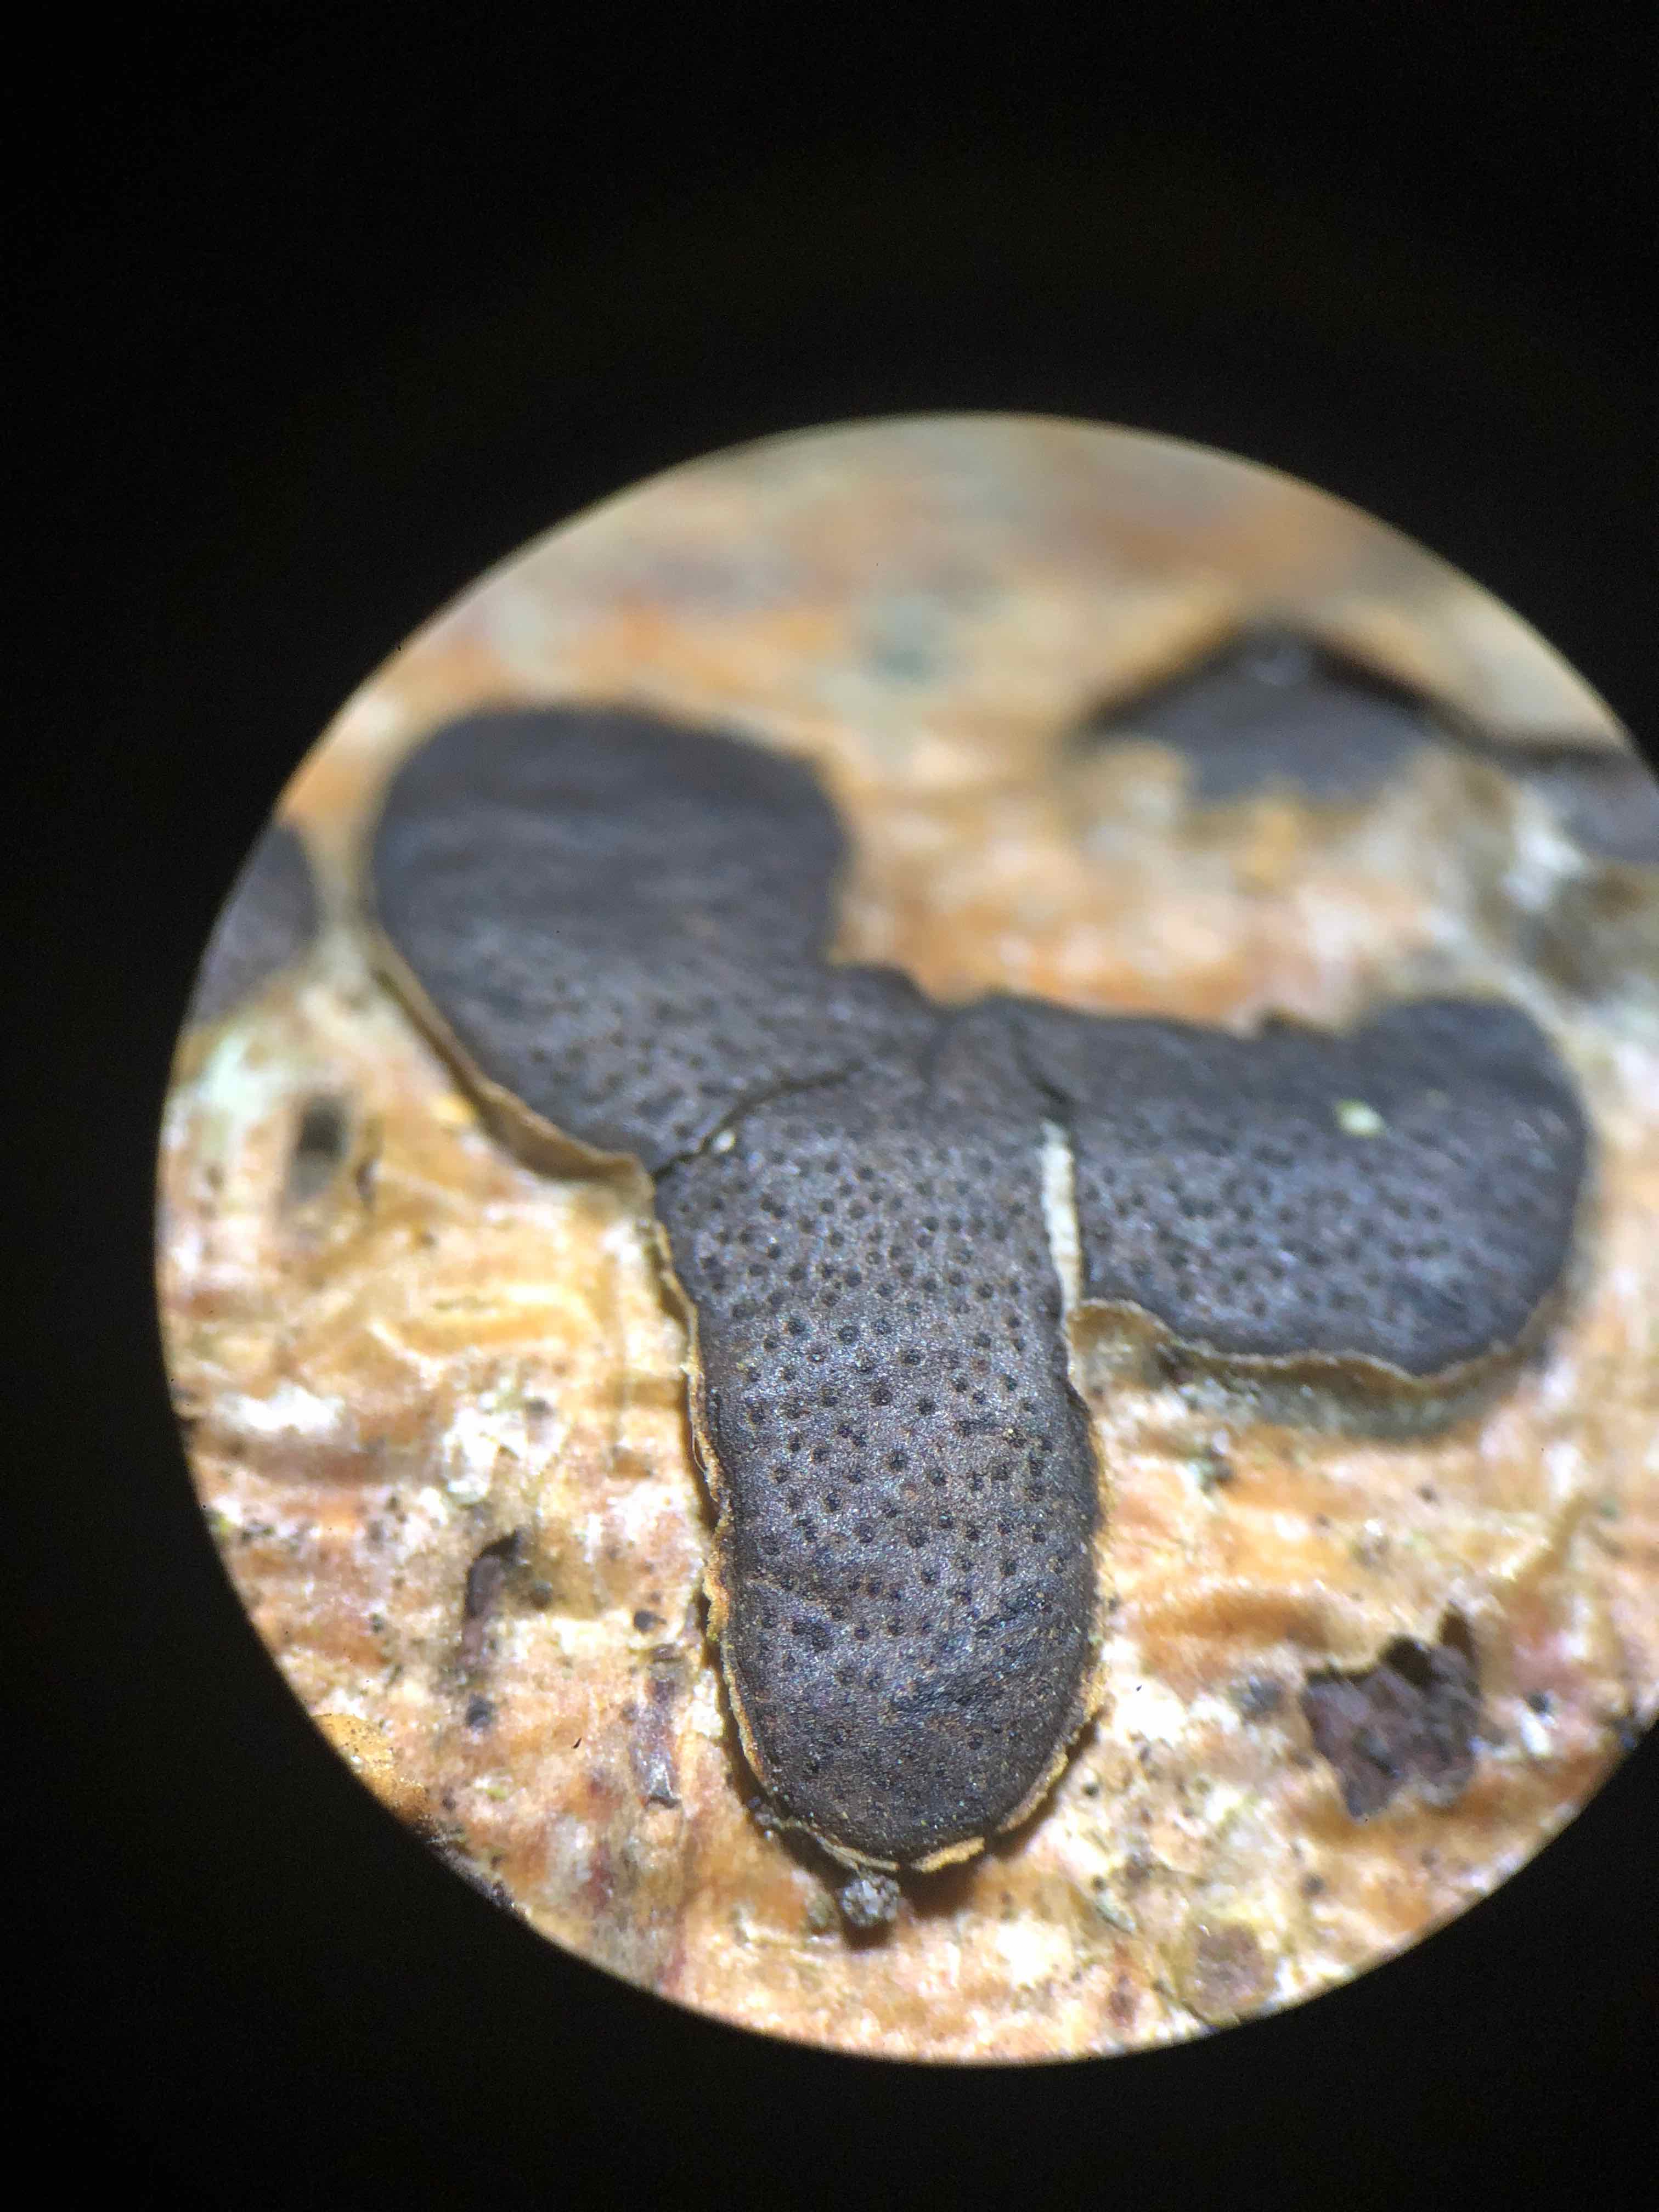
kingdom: Fungi
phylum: Ascomycota
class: Sordariomycetes
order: Xylariales
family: Diatrypaceae
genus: Diatrype
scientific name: Diatrype bullata
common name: pile-kulskorpe
